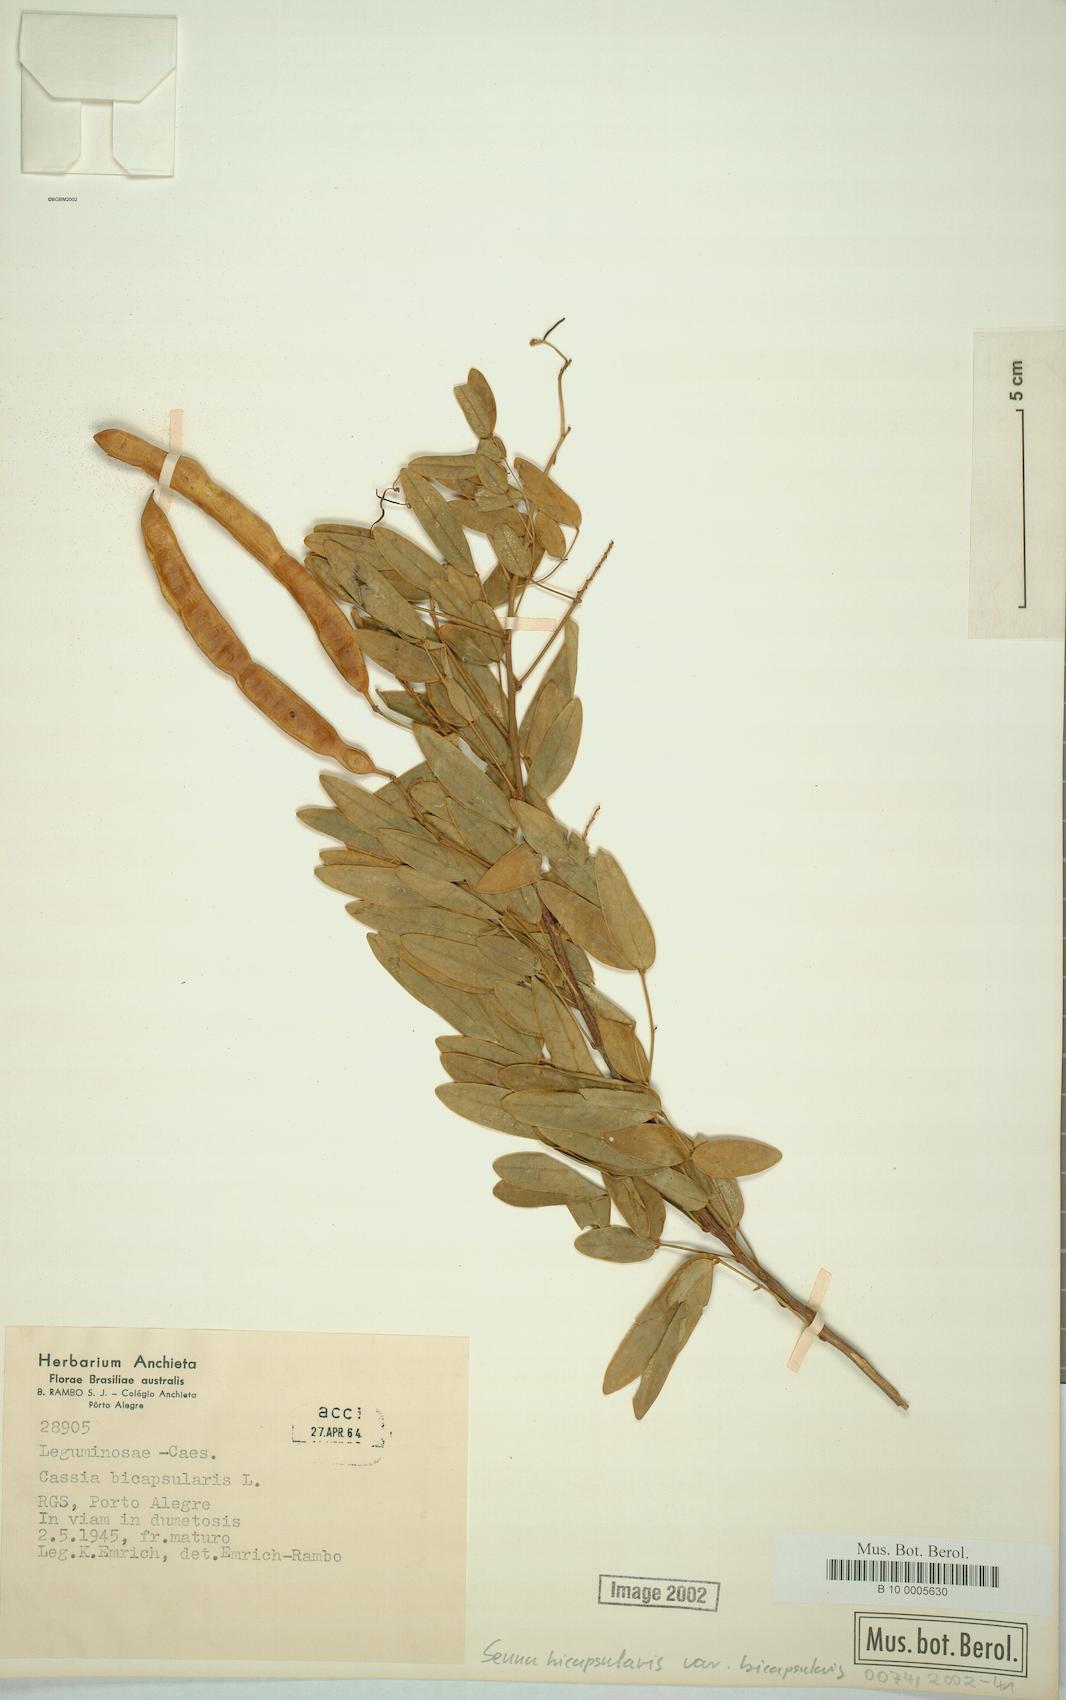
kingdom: Plantae
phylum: Tracheophyta
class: Magnoliopsida
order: Fabales
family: Fabaceae
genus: Senna
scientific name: Senna bicapsularis
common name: Christmasbush
